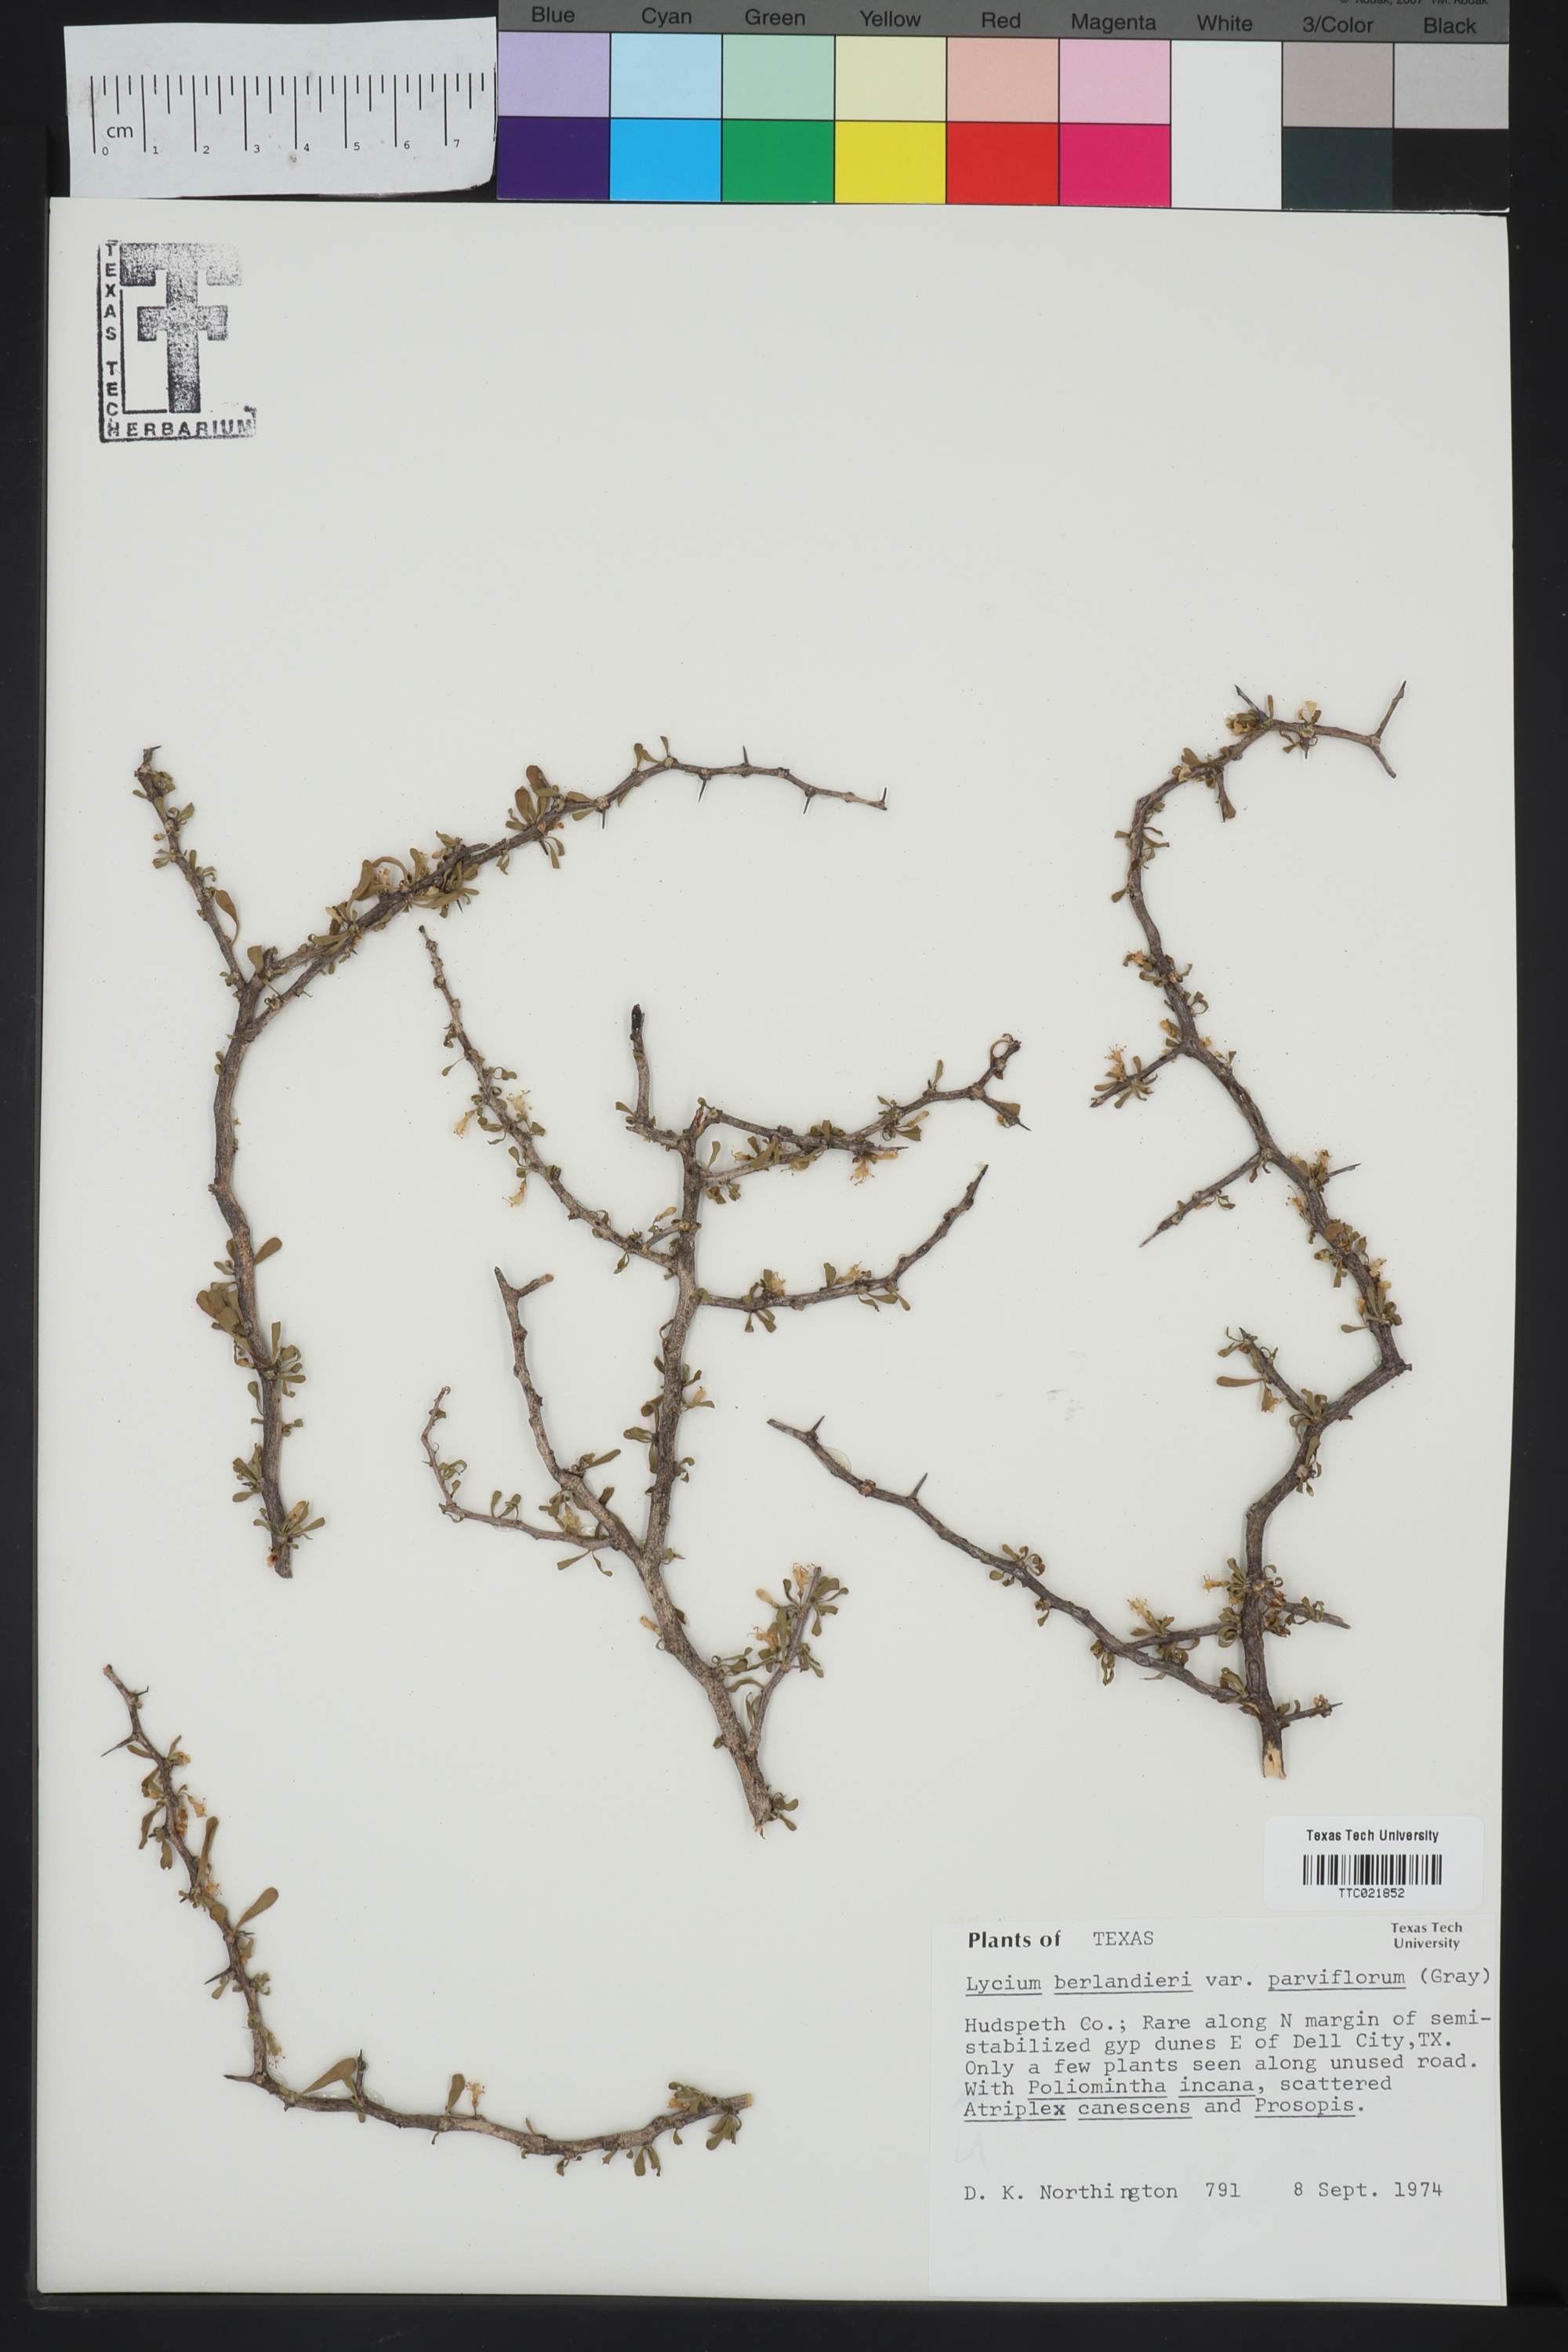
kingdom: Plantae
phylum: Tracheophyta
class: Magnoliopsida
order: Solanales
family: Solanaceae
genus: Lycium
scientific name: Lycium berlandieri
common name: Berlandier wolfberry
